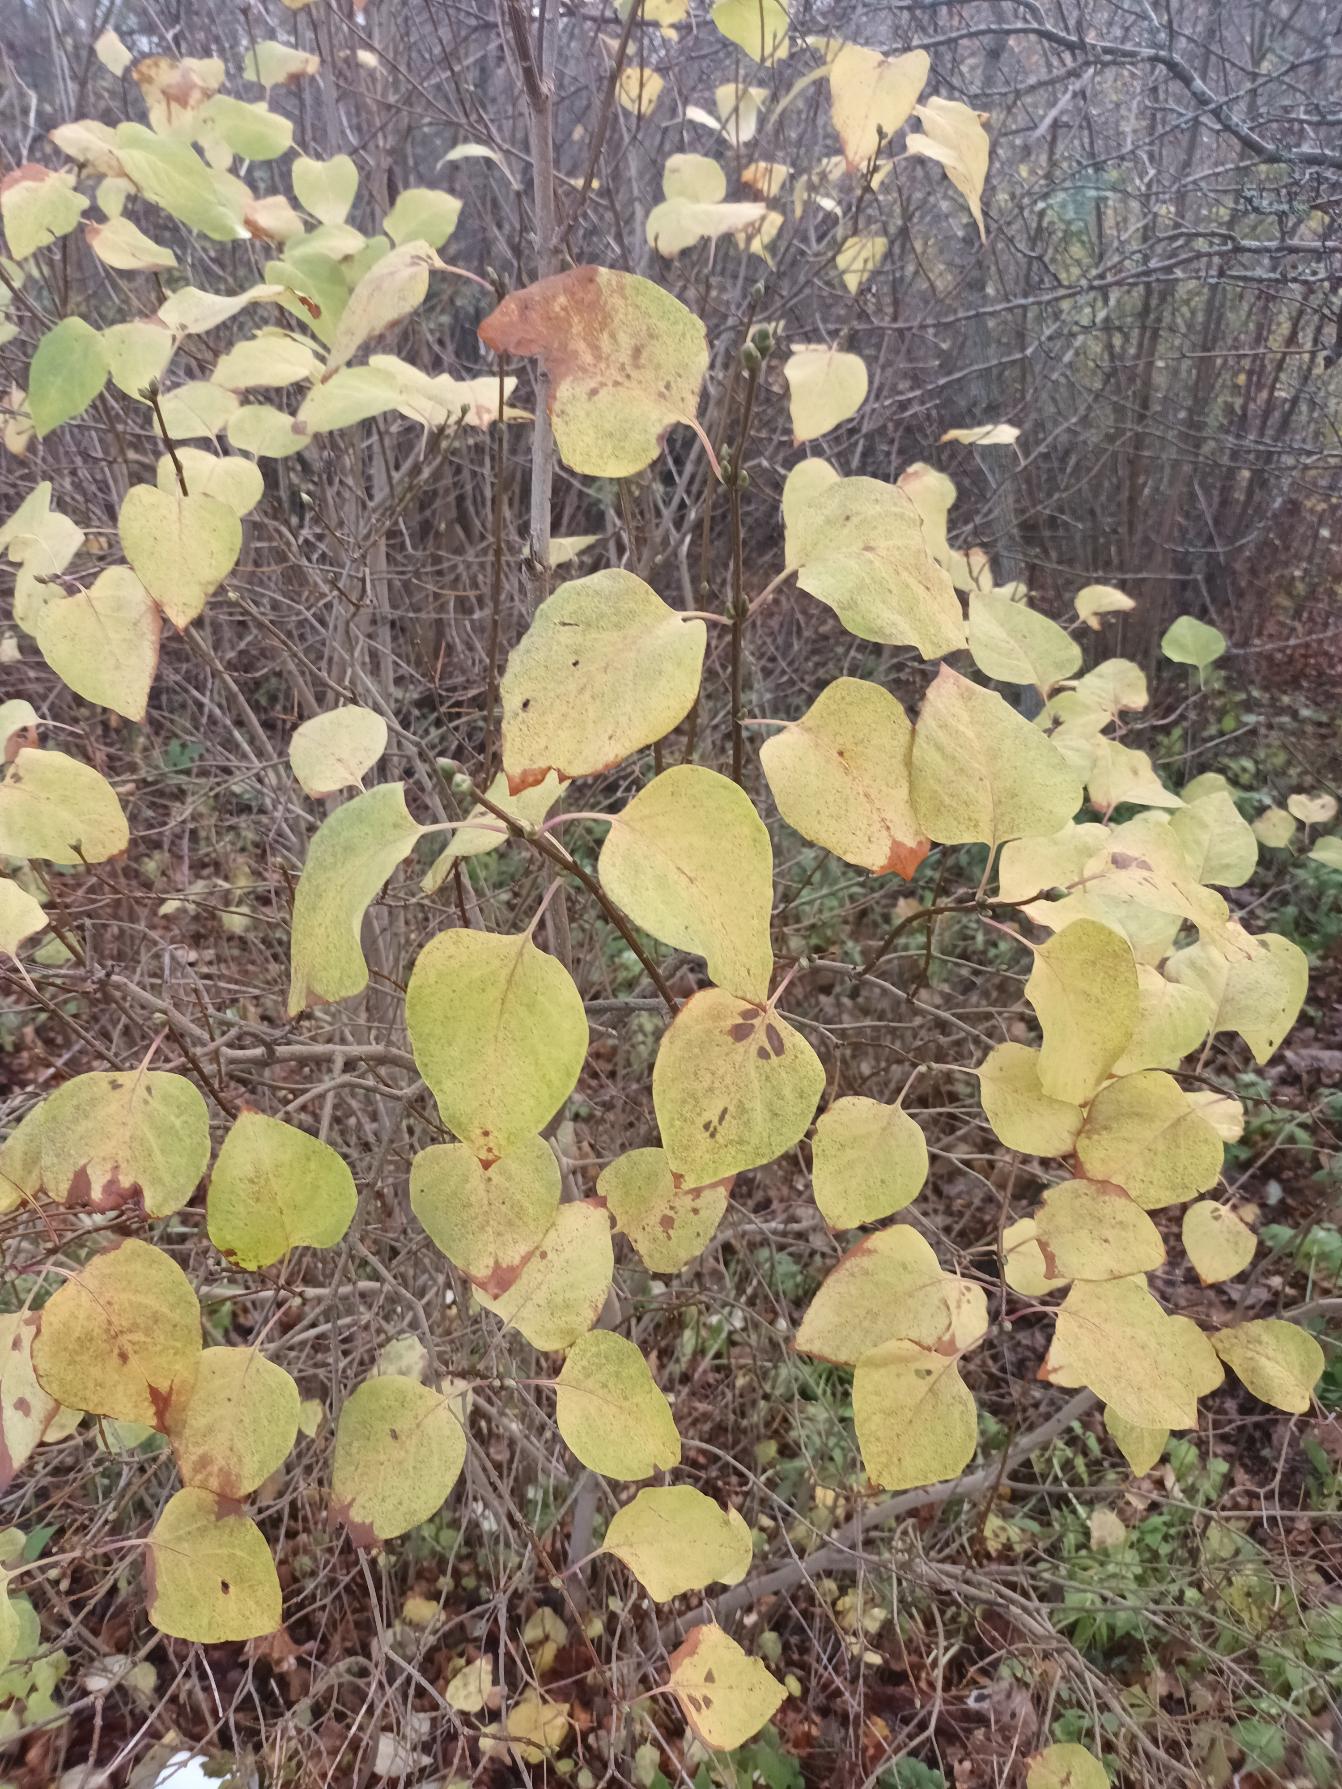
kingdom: Plantae
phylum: Tracheophyta
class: Magnoliopsida
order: Lamiales
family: Oleaceae
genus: Syringa
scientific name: Syringa vulgaris
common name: Syren
